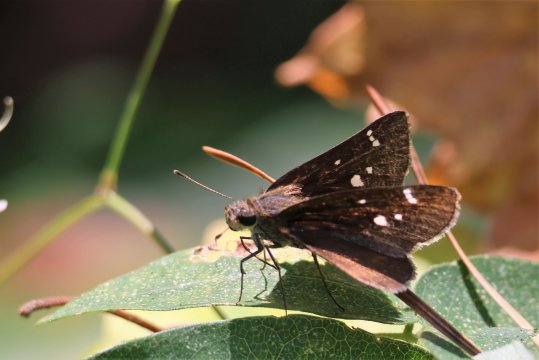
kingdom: Animalia
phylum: Arthropoda
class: Insecta
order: Lepidoptera
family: Hesperiidae
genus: Lerema
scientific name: Lerema accius
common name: Clouded Skipper
